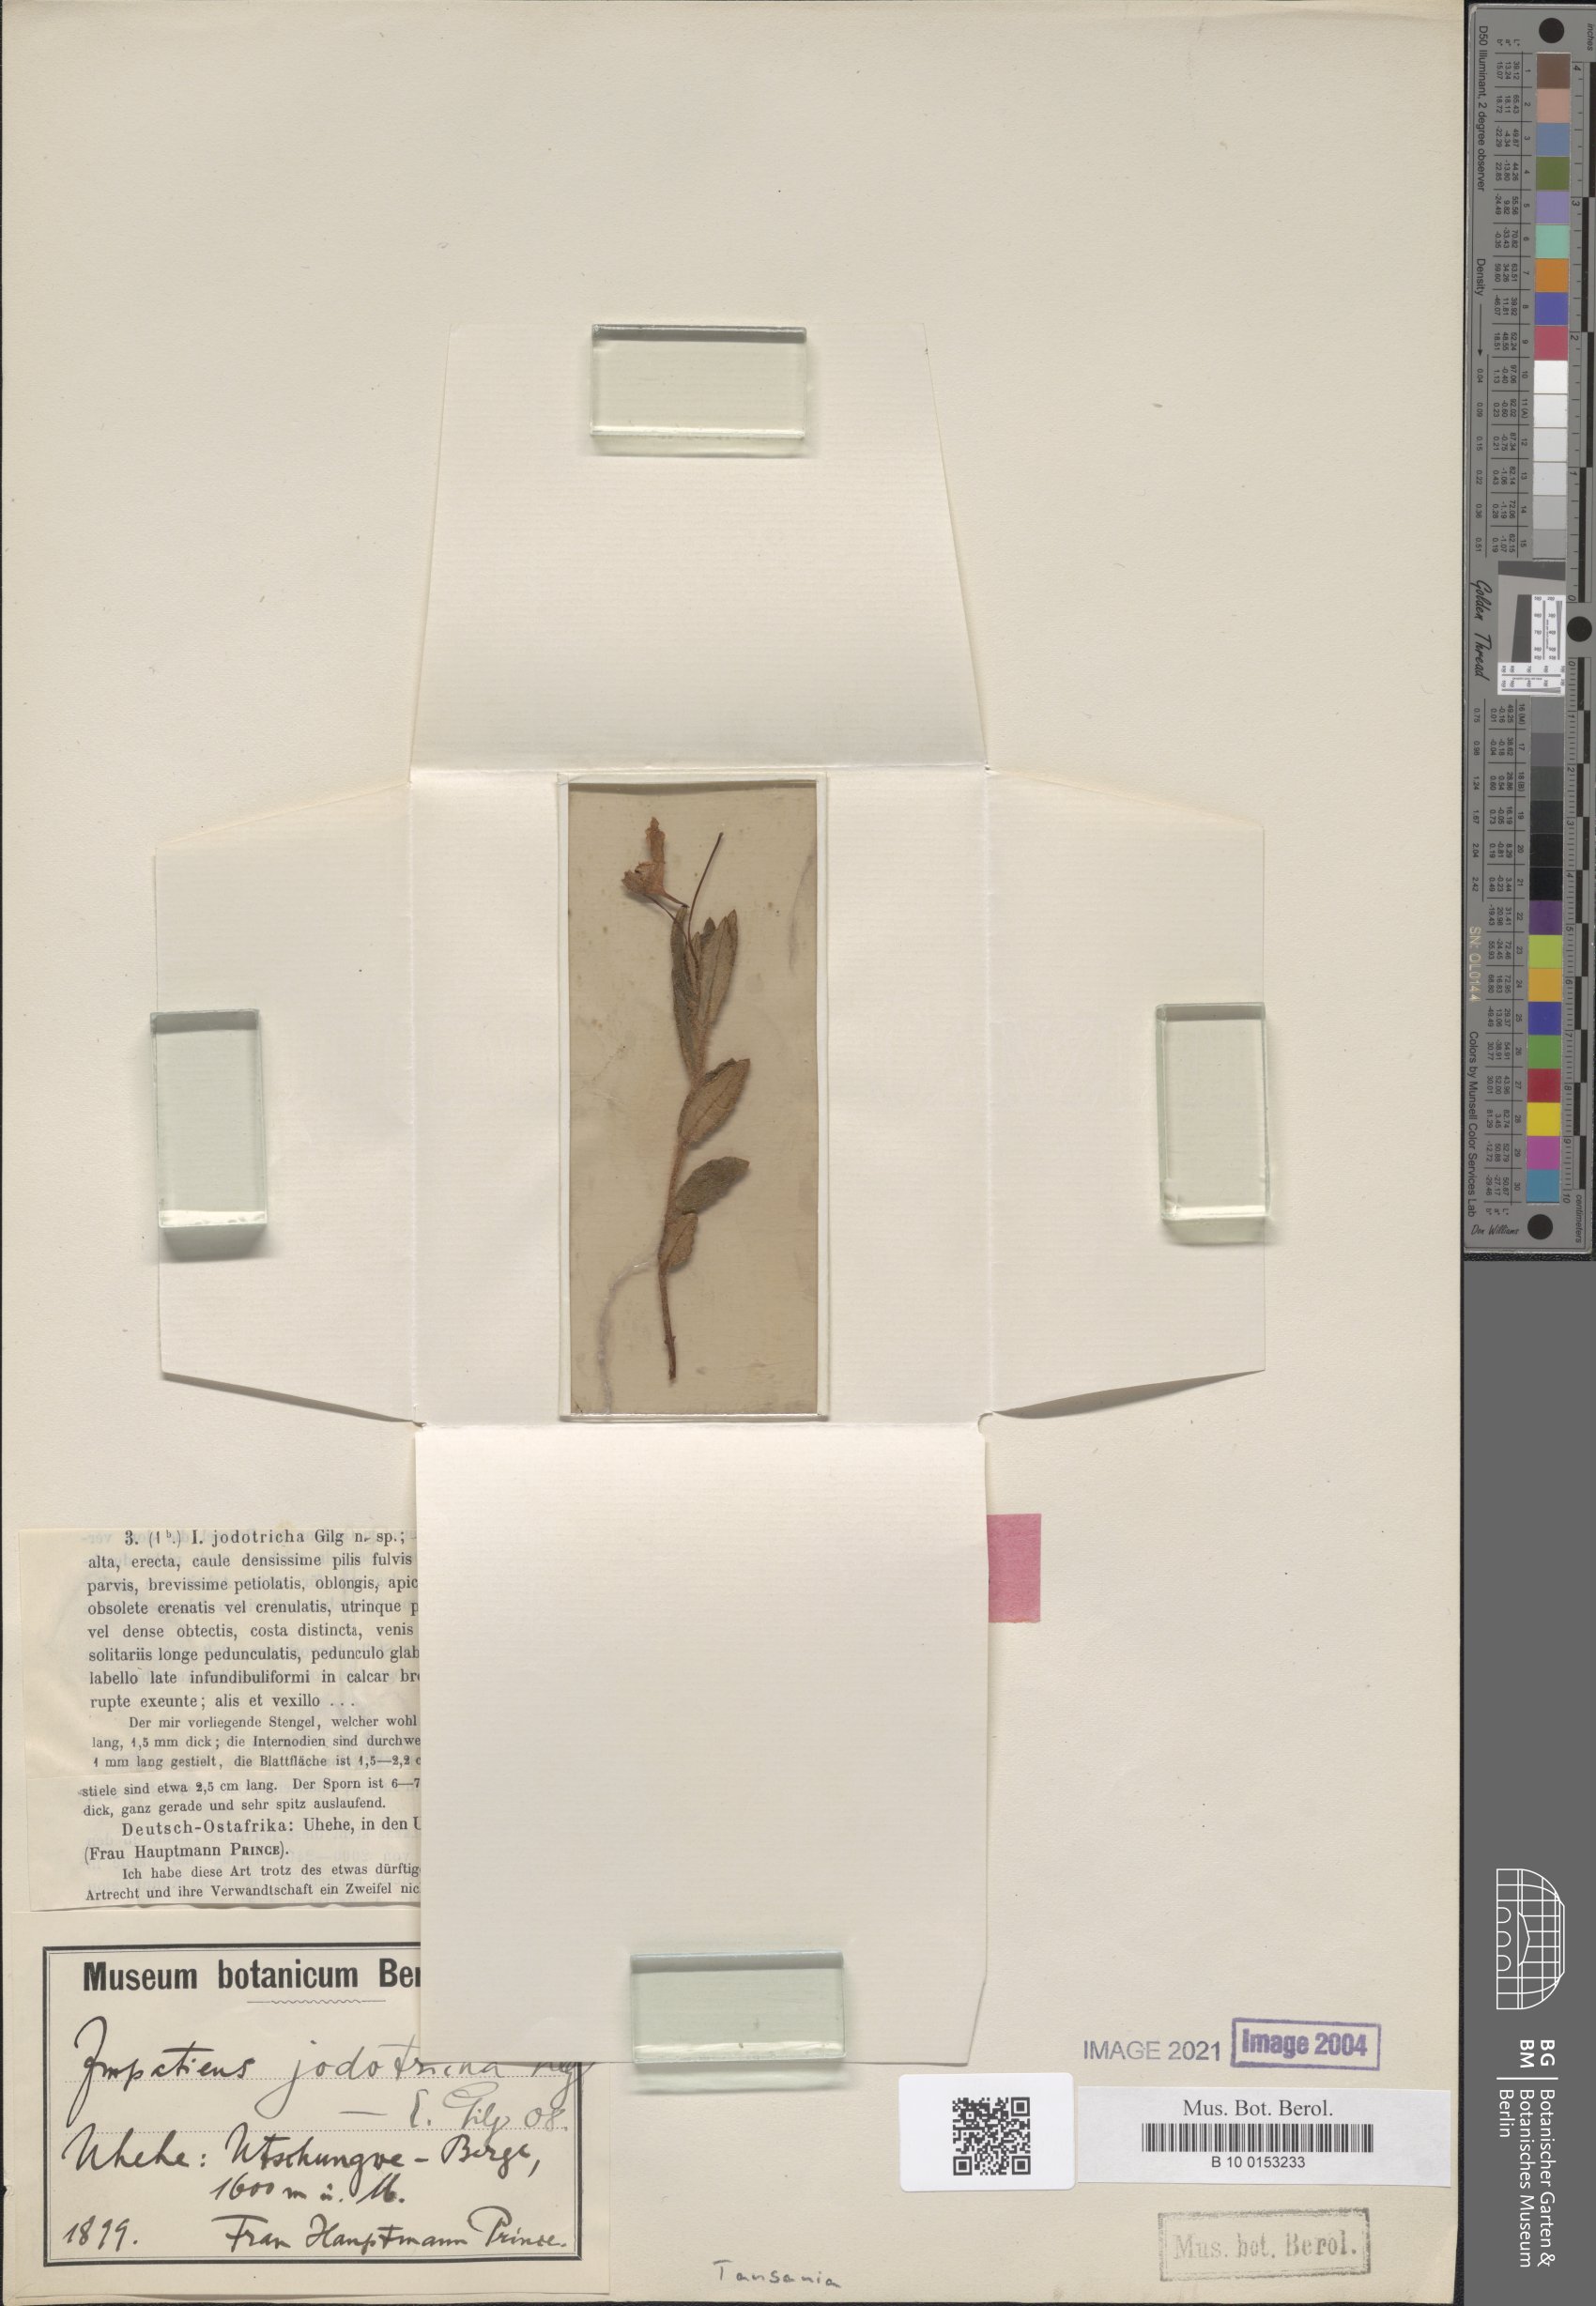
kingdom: Plantae
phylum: Tracheophyta
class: Magnoliopsida
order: Ericales
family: Balsaminaceae
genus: Impatiens
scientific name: Impatiens assurgens
